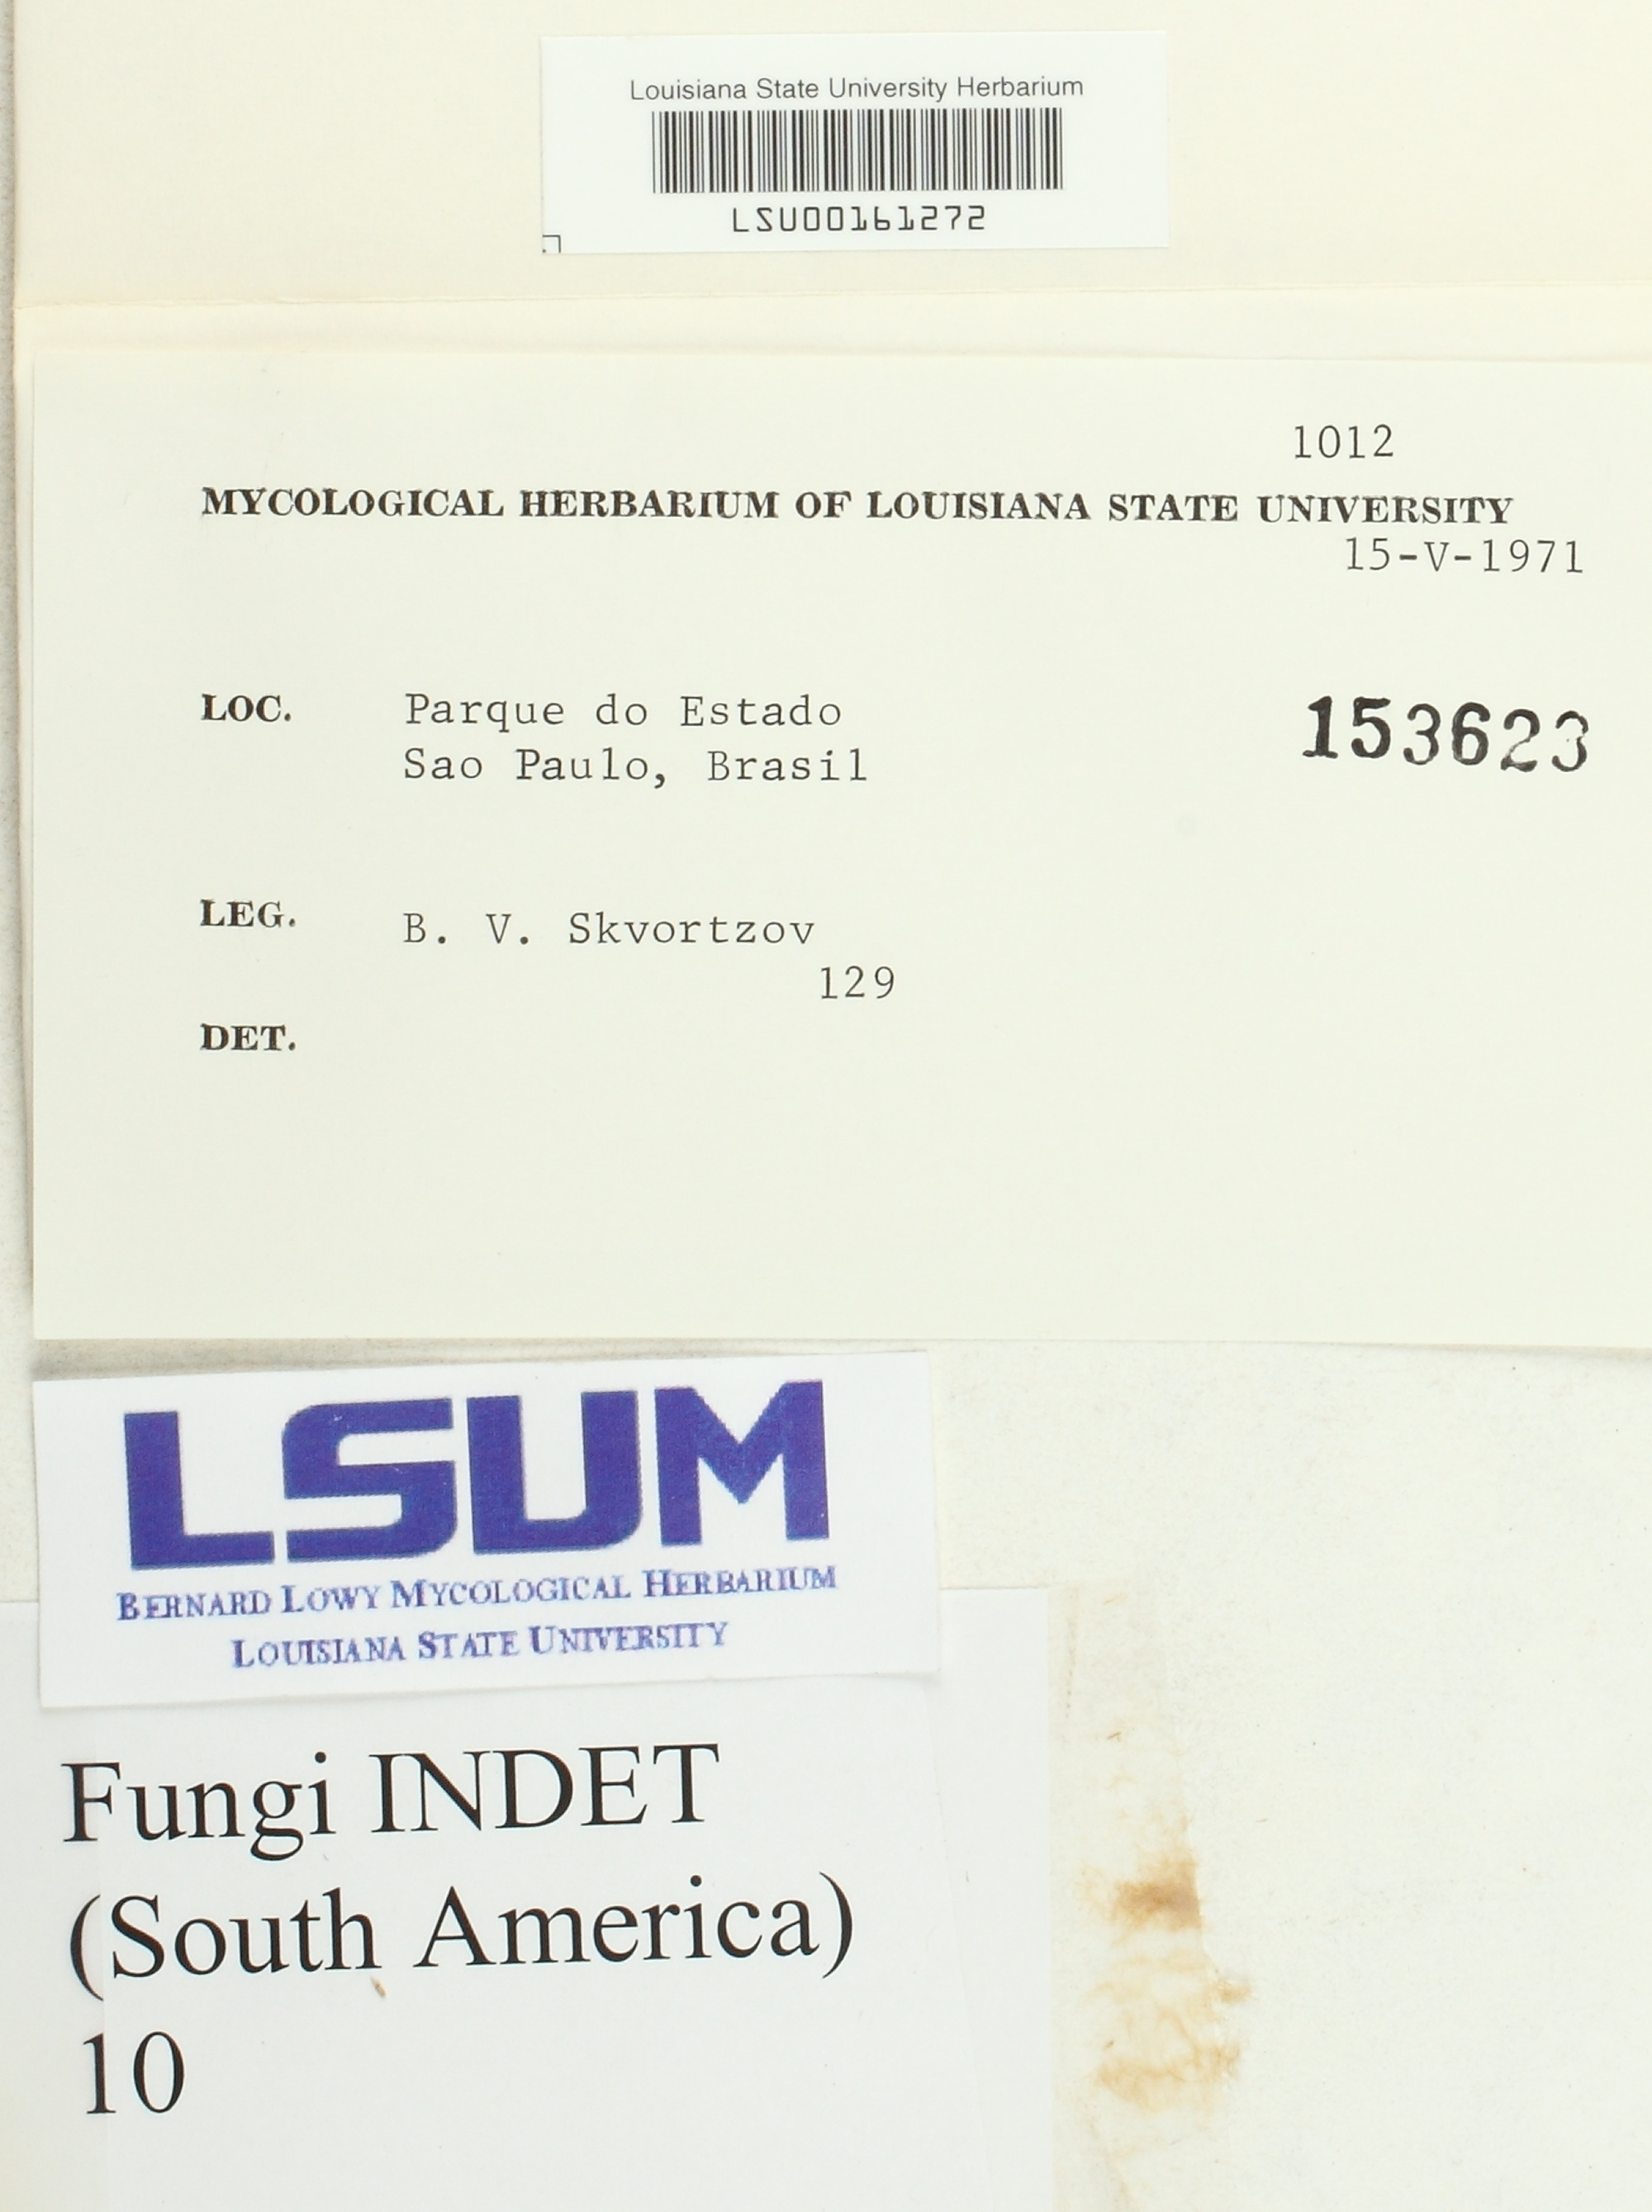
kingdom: Fungi
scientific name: Fungi
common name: Fungi
